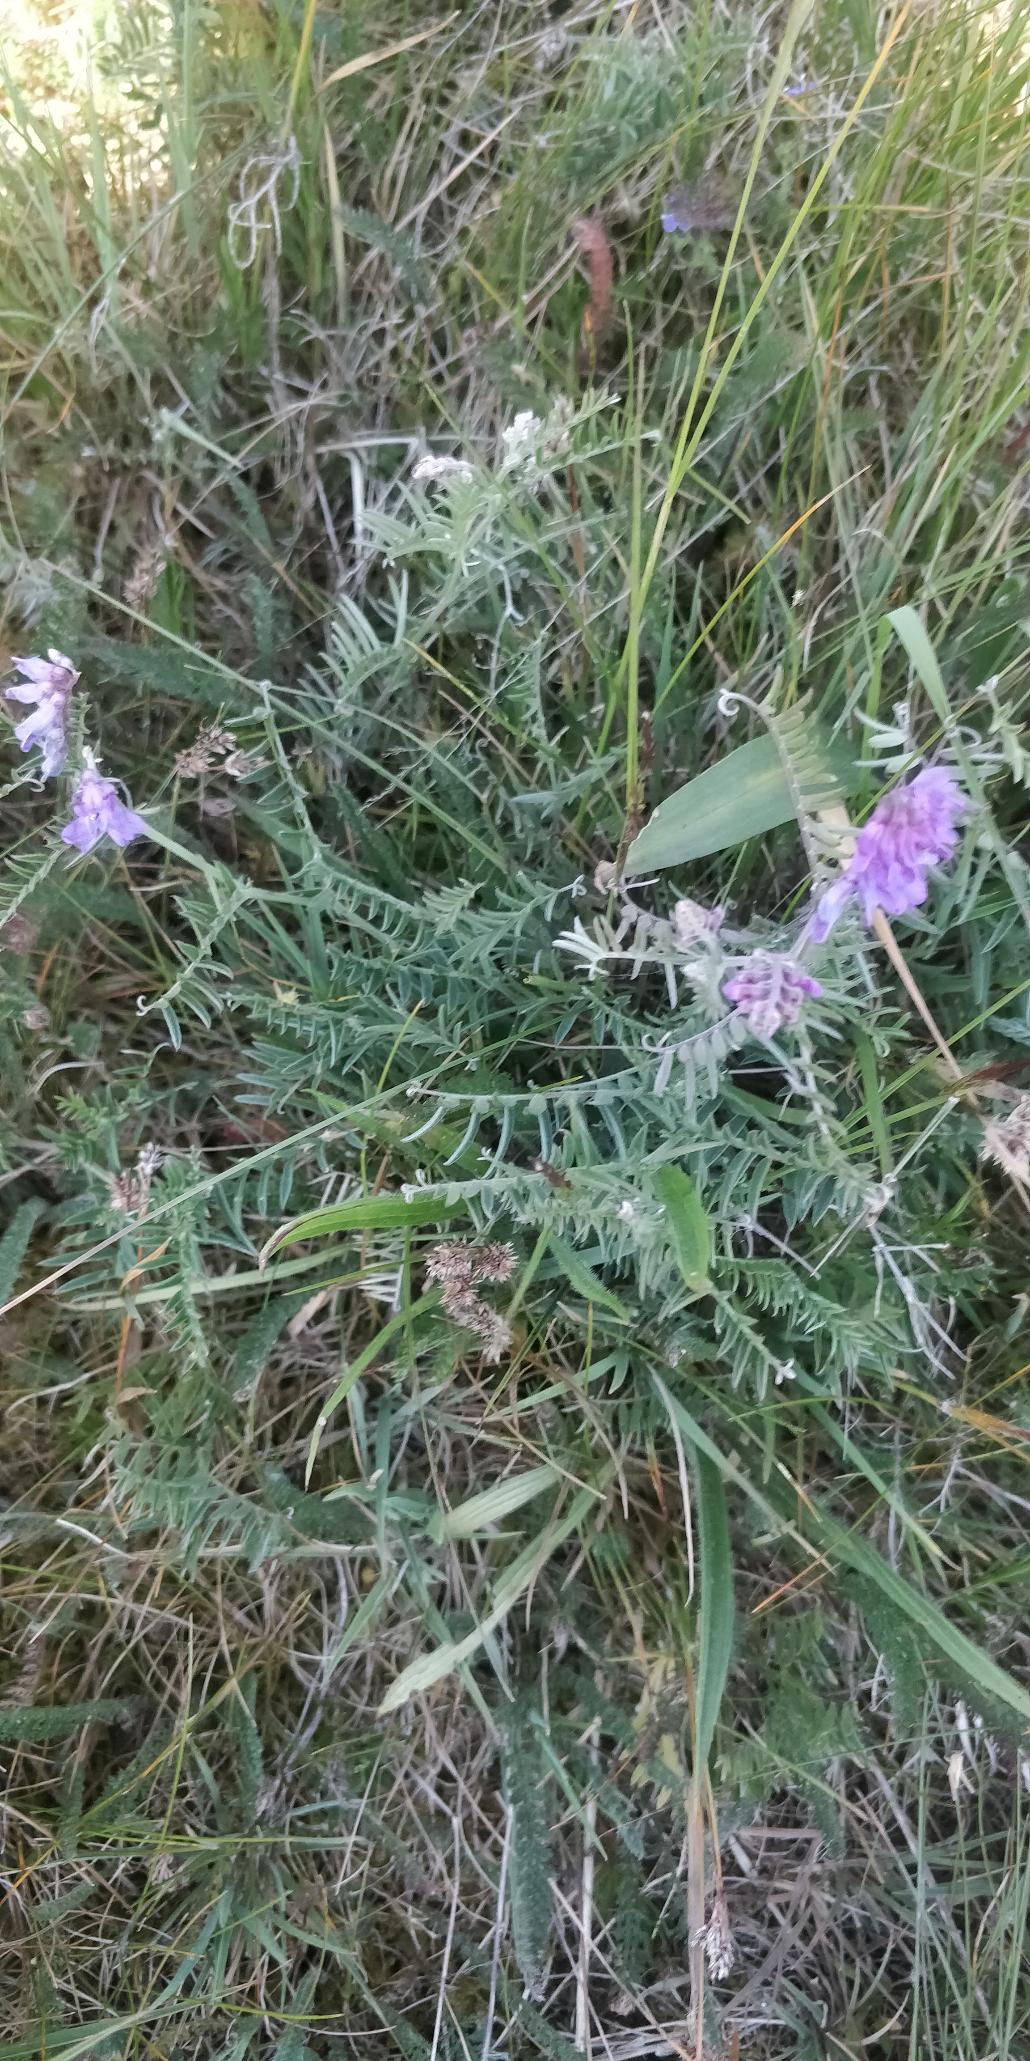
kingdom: Plantae
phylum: Tracheophyta
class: Magnoliopsida
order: Fabales
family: Fabaceae
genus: Vicia
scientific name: Vicia cracca
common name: Muse-vikke
